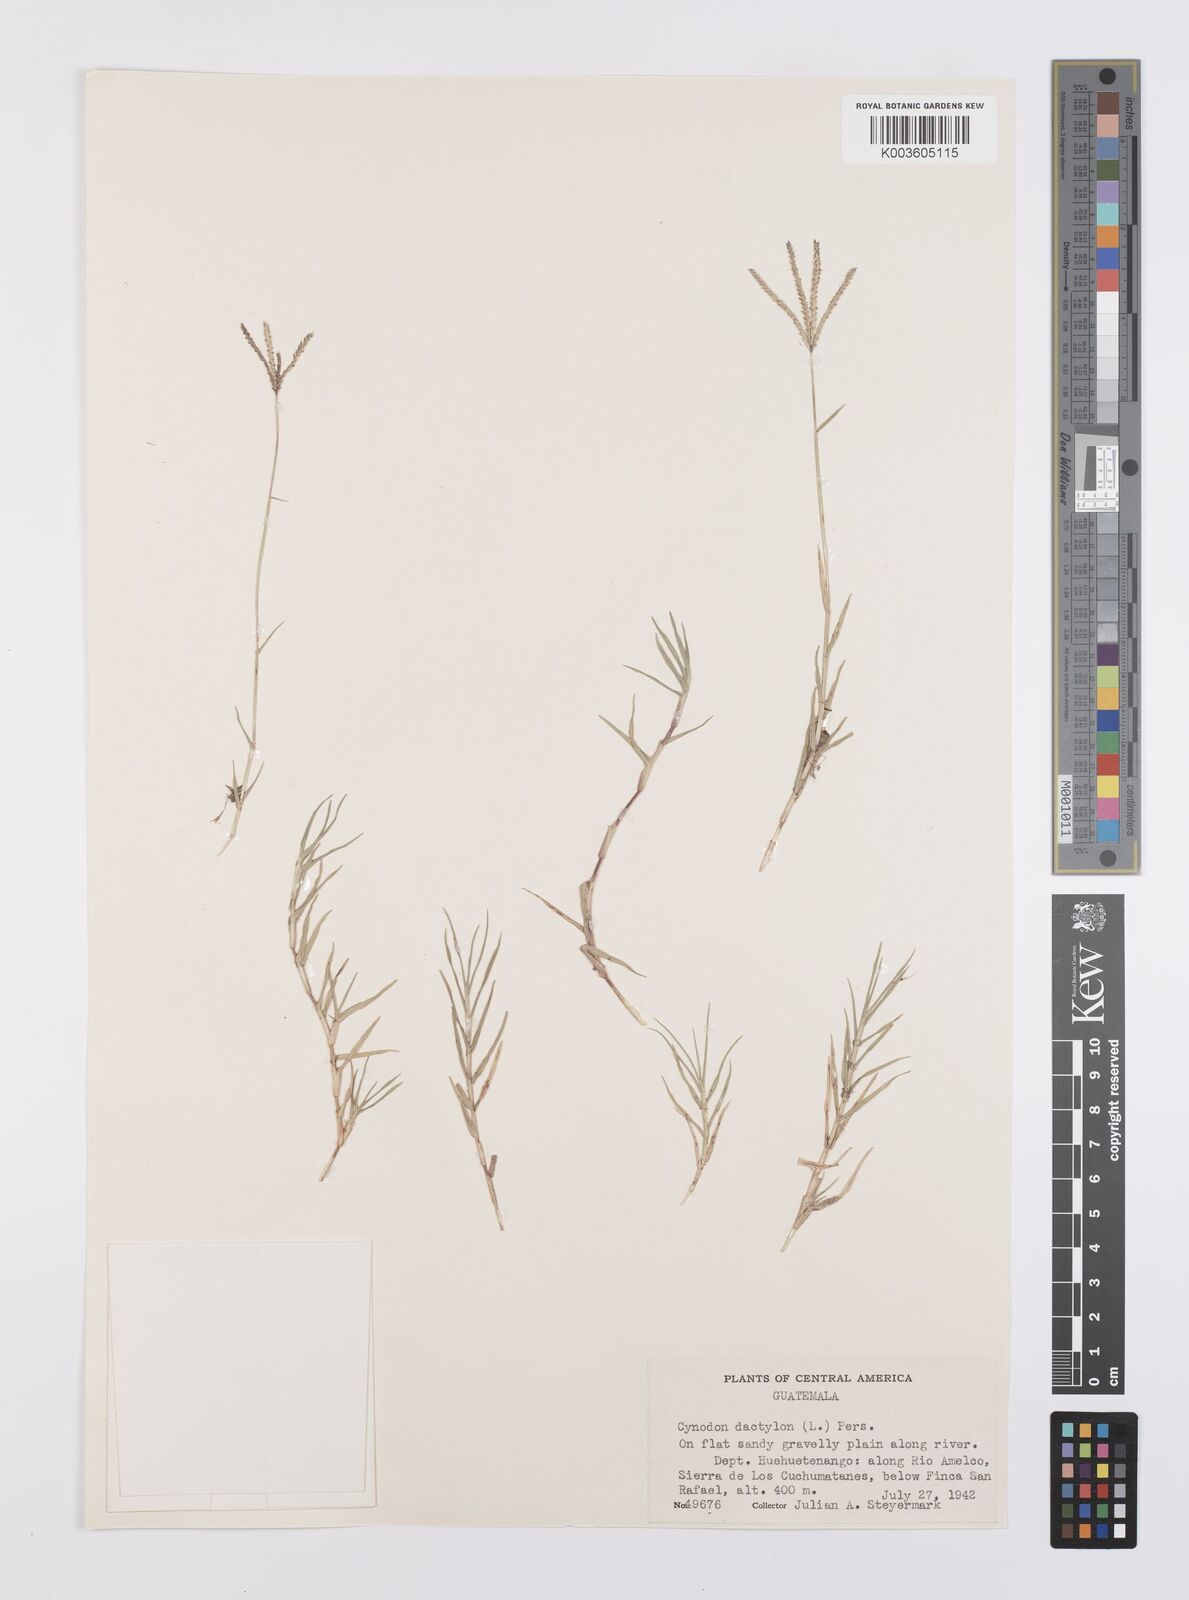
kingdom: Plantae
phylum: Tracheophyta
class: Liliopsida
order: Poales
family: Poaceae
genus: Cynodon
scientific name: Cynodon dactylon
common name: Bermuda grass
